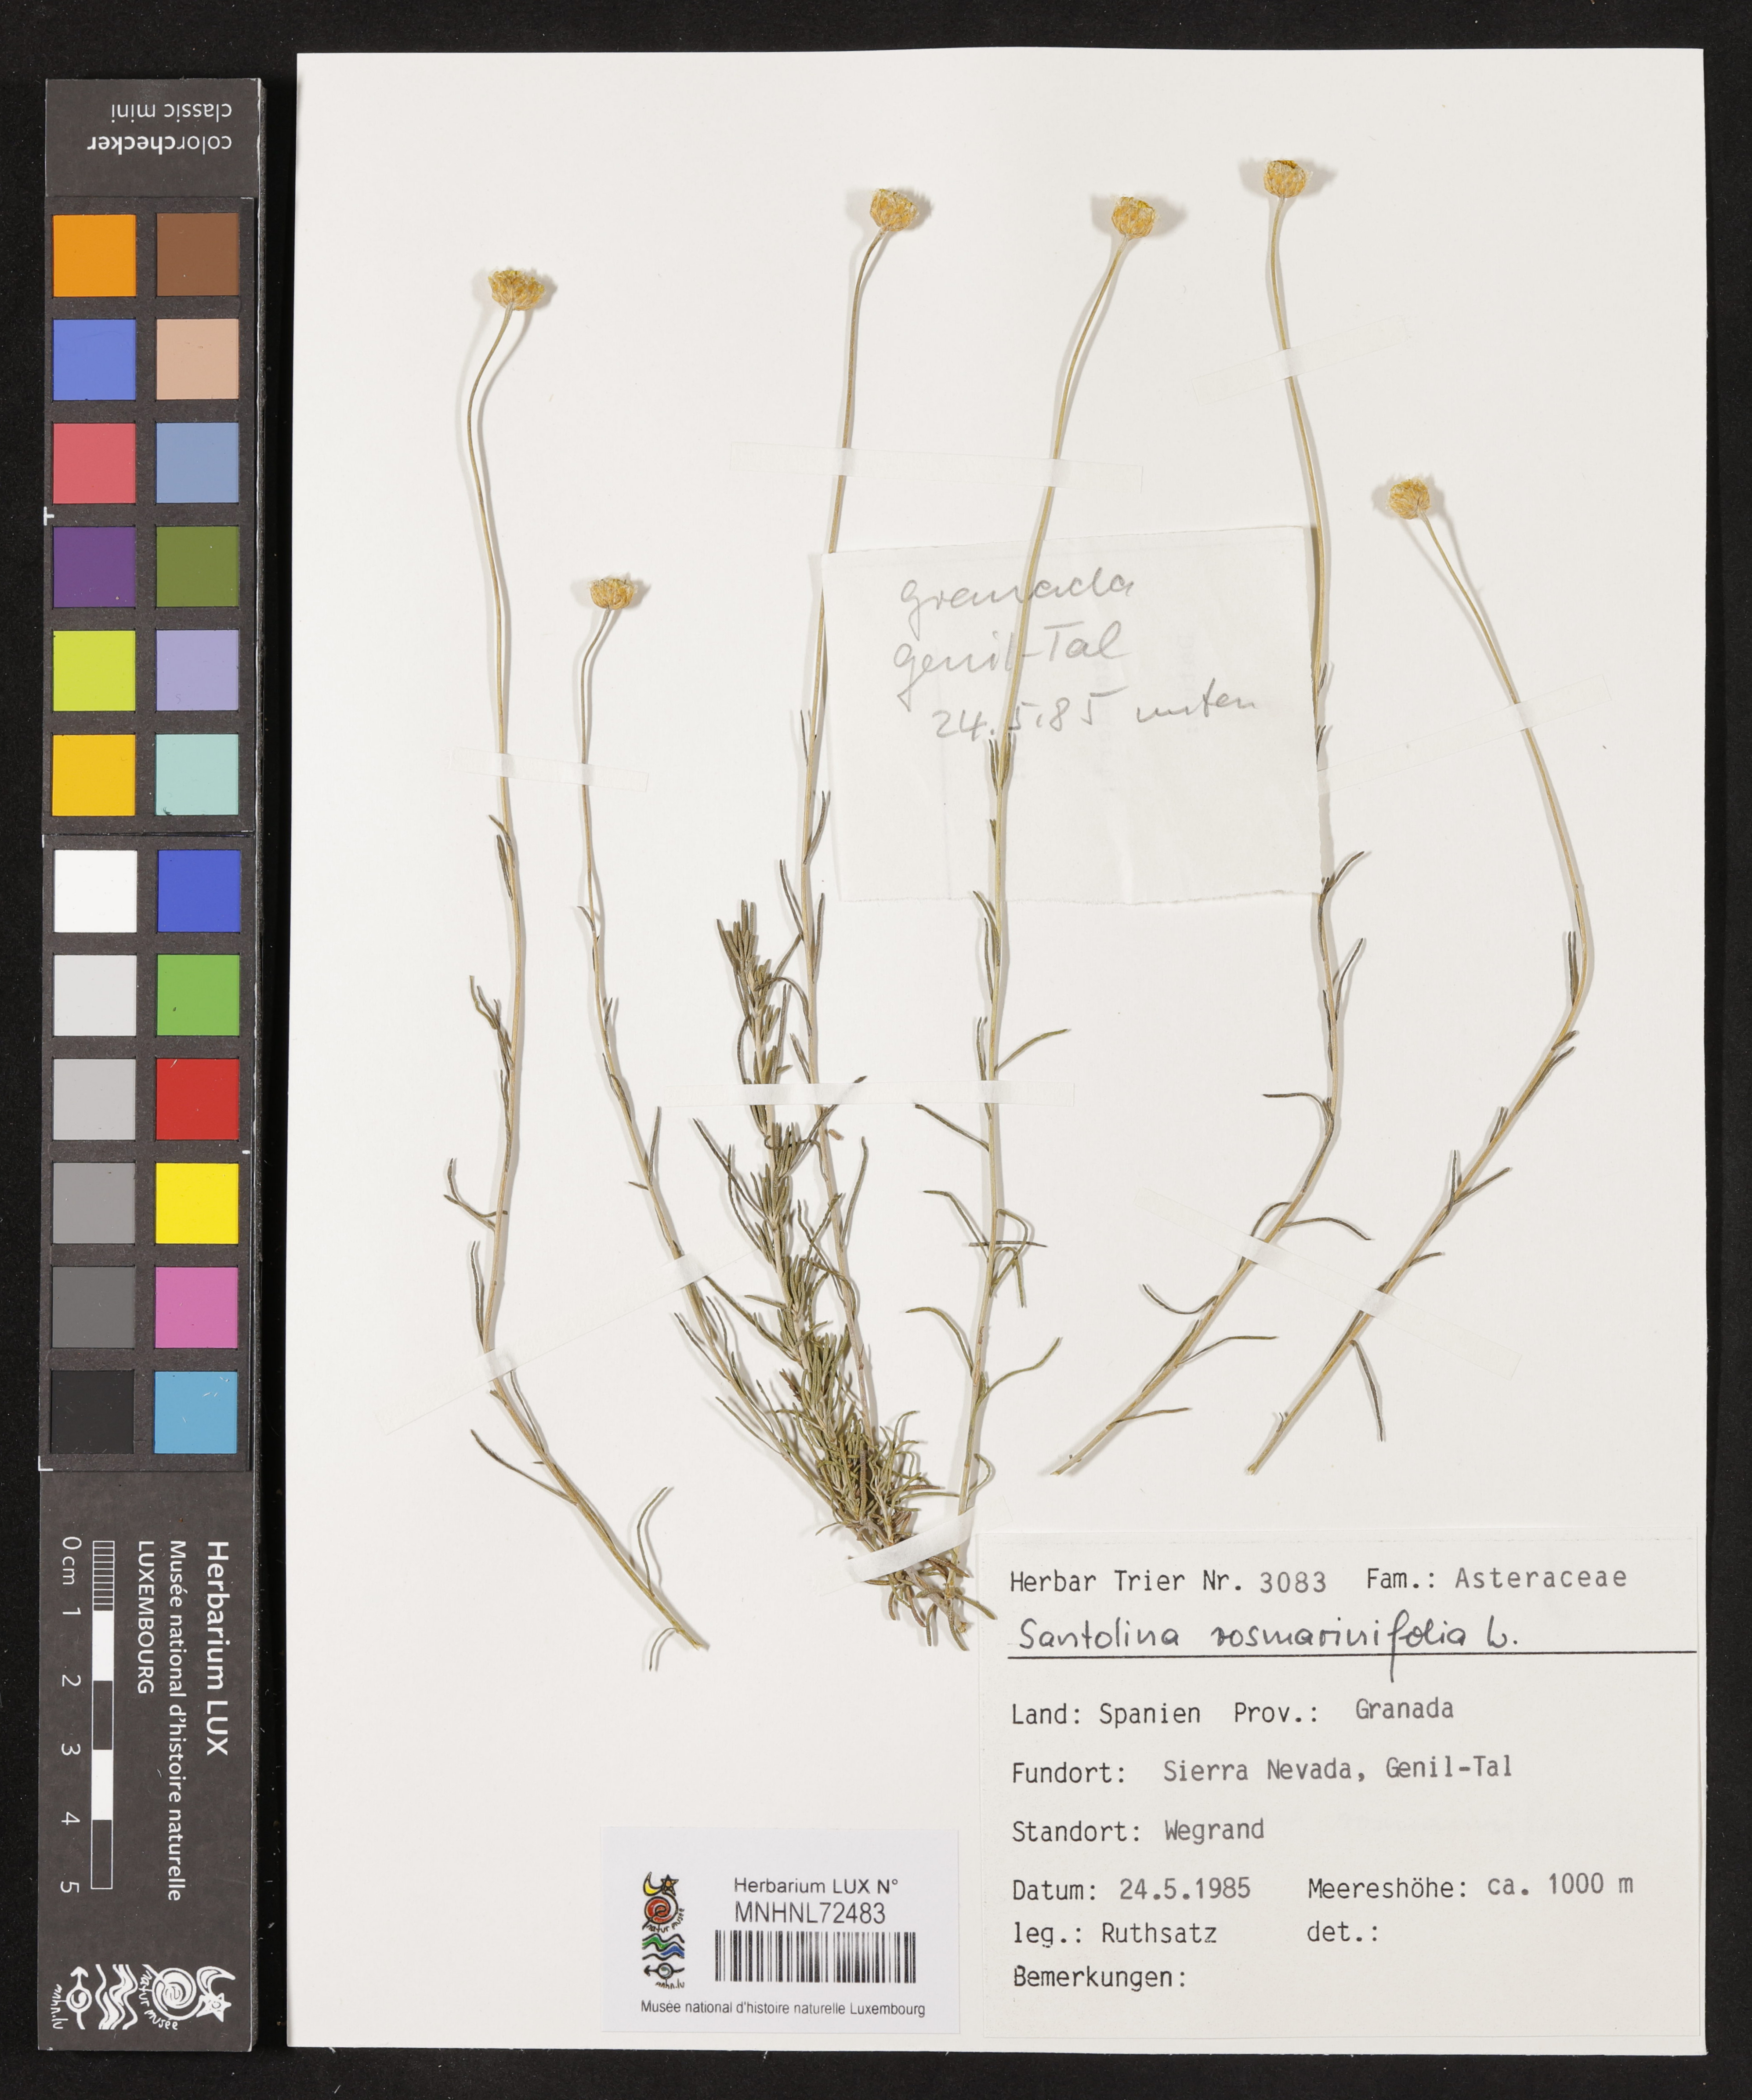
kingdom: Plantae
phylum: Tracheophyta
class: Magnoliopsida
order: Asterales
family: Asteraceae
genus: Santolina
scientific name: Santolina rosmarinifolia
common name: Holy-flax
